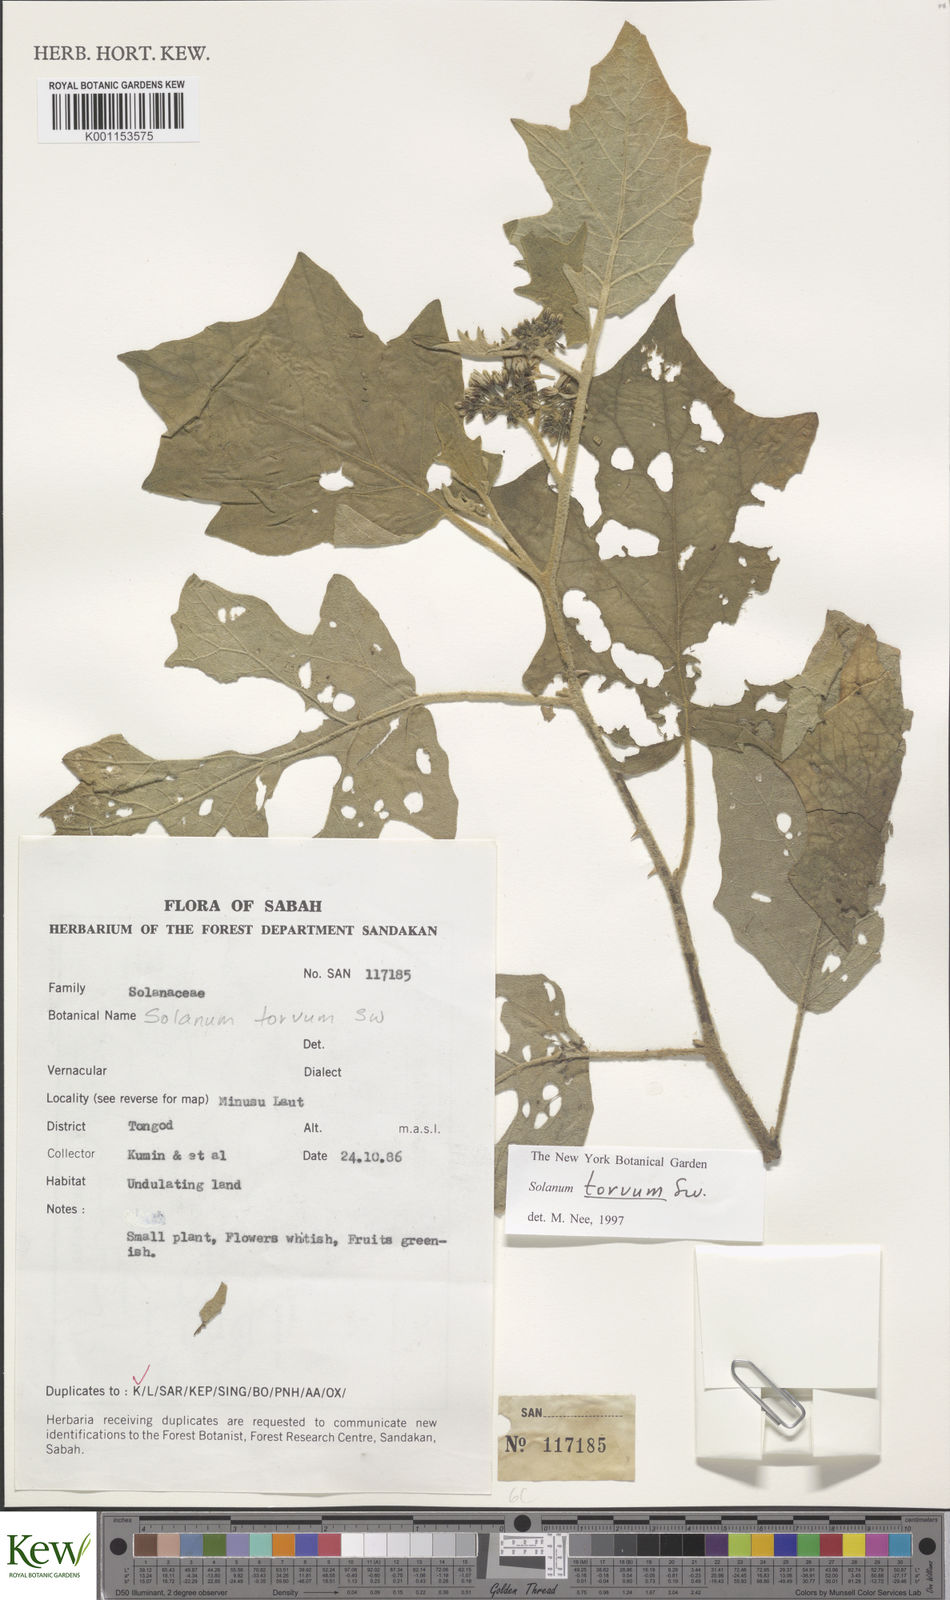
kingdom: Plantae
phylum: Tracheophyta
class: Magnoliopsida
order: Solanales
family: Solanaceae
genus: Solanum
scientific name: Solanum torvum
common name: Turkey berry
